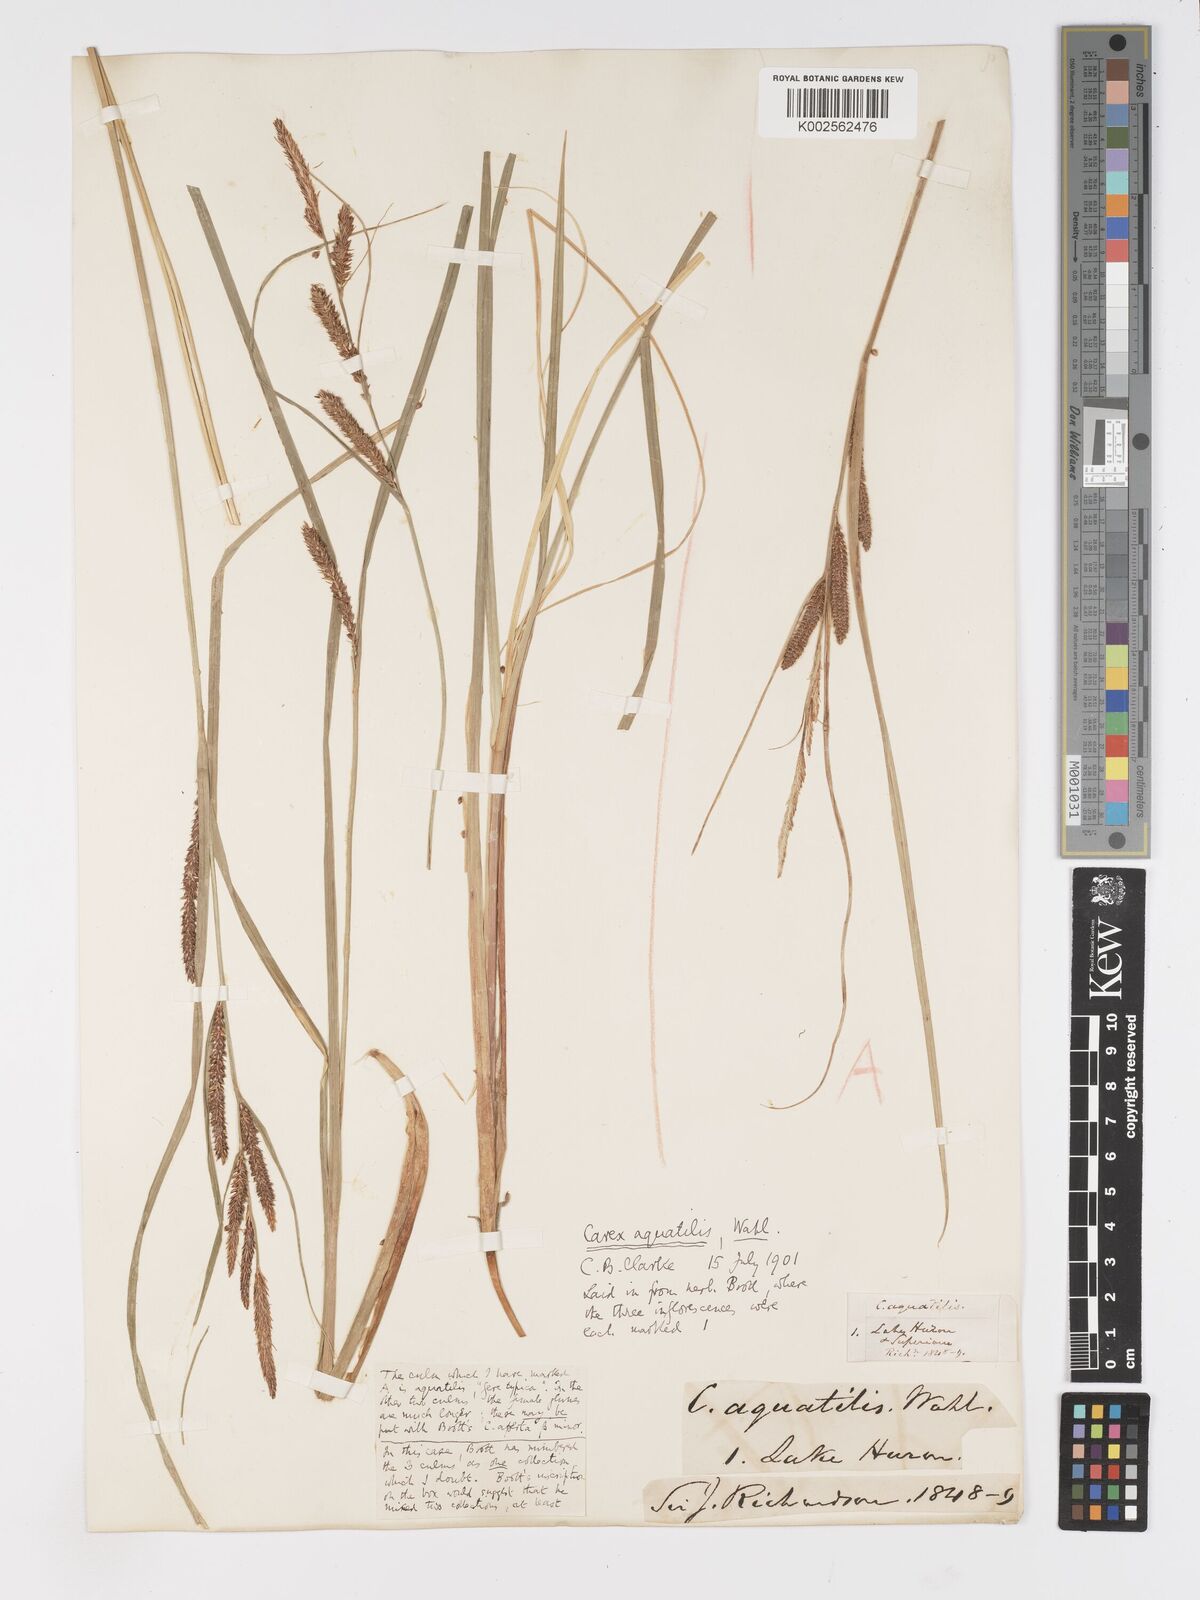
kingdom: Plantae
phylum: Tracheophyta
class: Liliopsida
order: Poales
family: Cyperaceae
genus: Carex
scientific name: Carex
